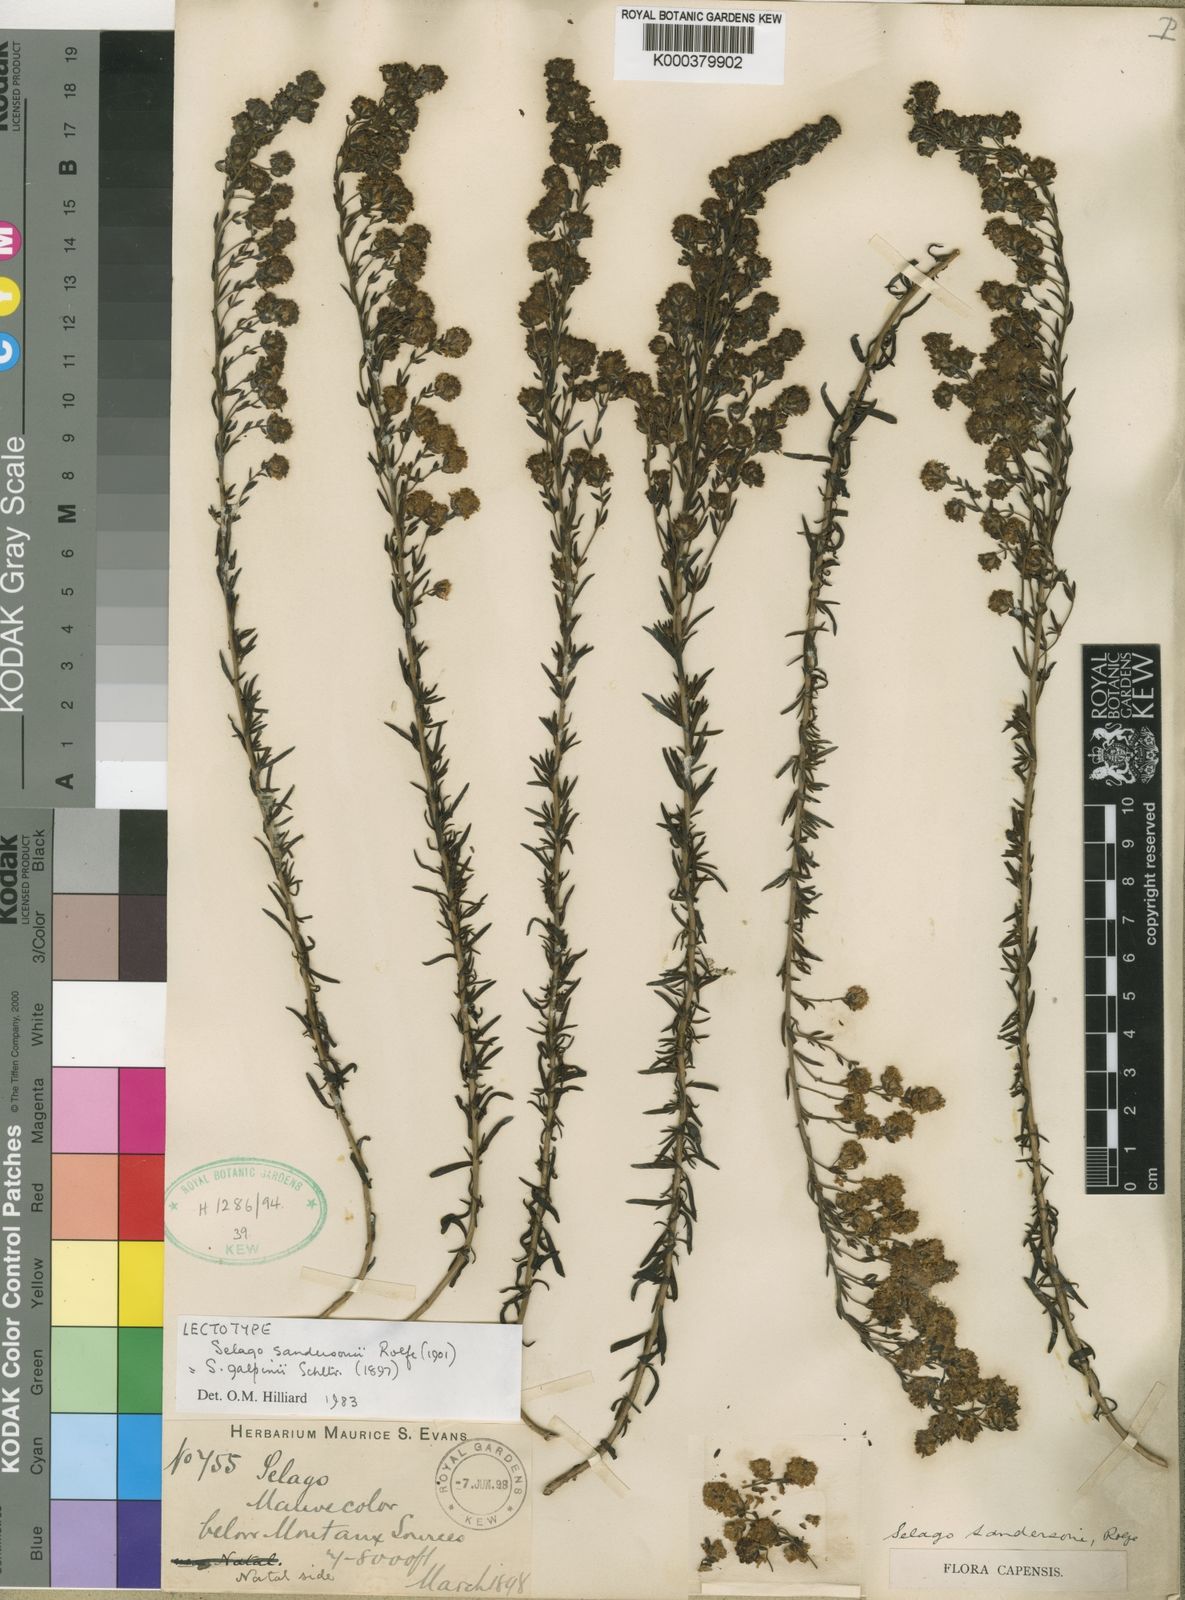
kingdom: Plantae
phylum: Tracheophyta
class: Magnoliopsida
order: Lamiales
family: Scrophulariaceae
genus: Selago
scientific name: Selago galpinii
